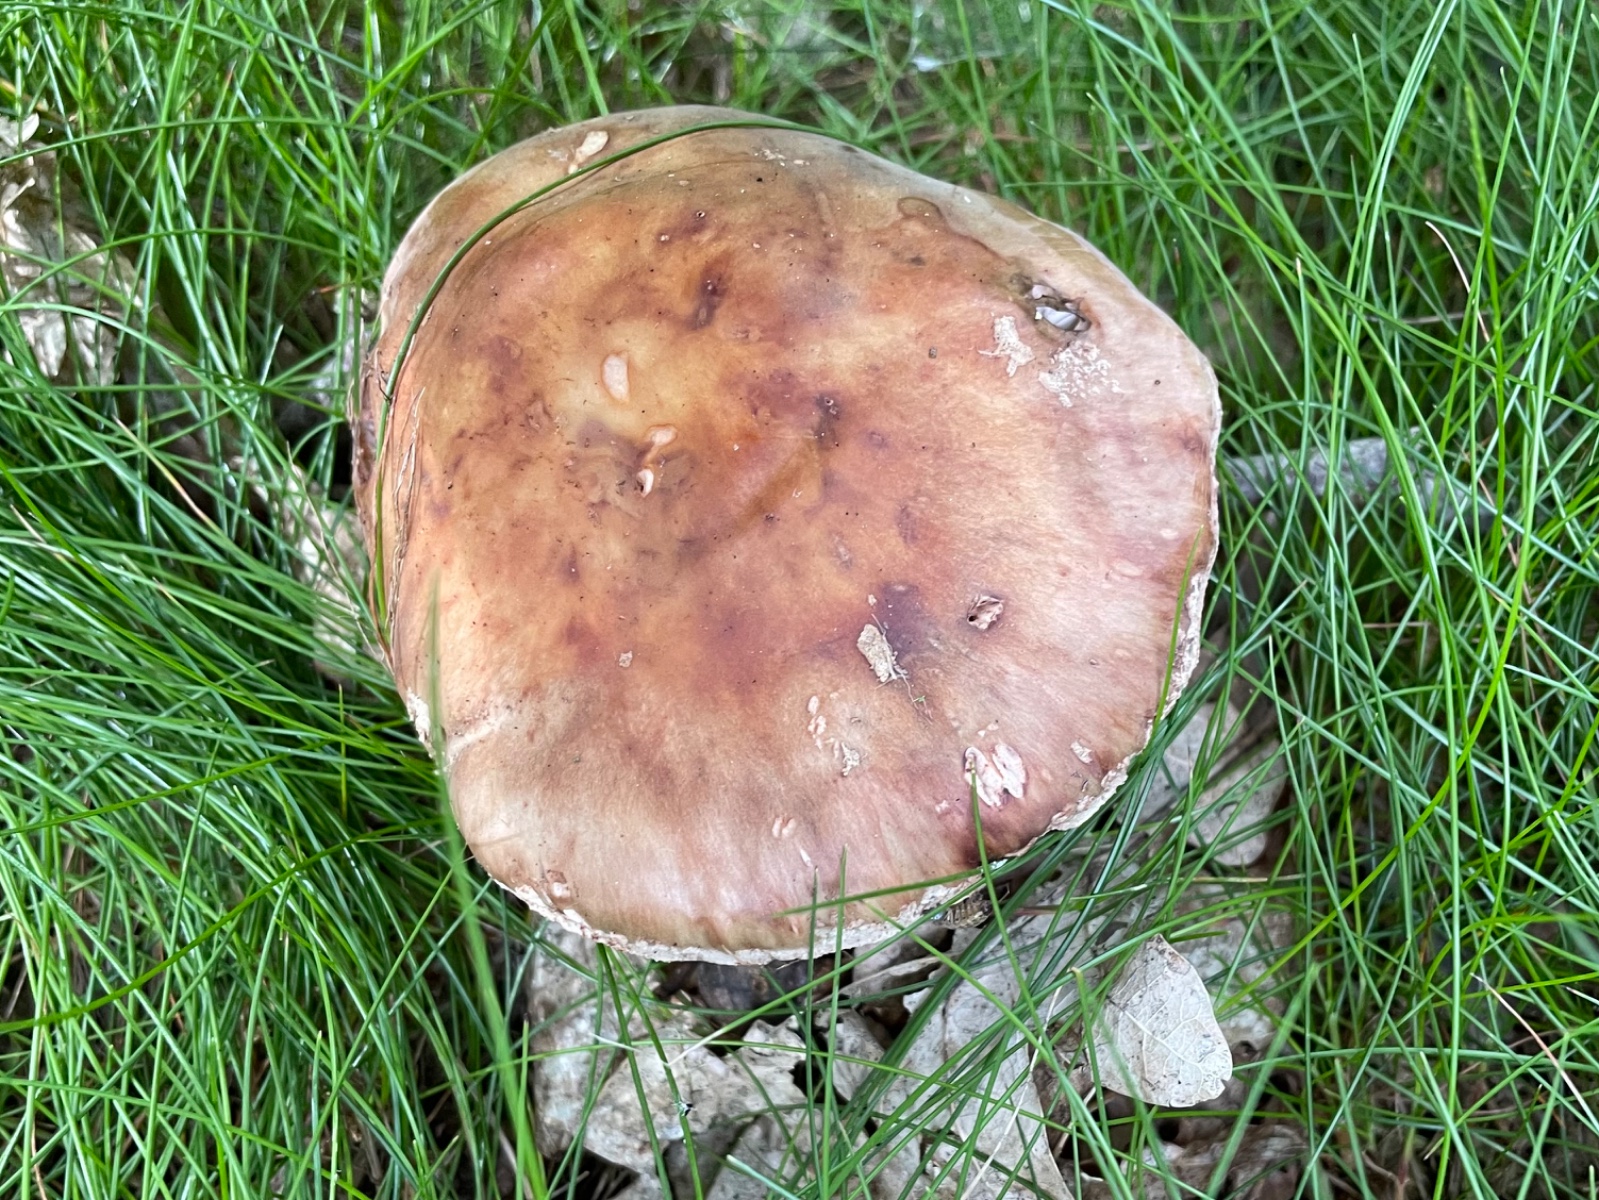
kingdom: Fungi
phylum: Basidiomycota
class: Agaricomycetes
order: Agaricales
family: Amanitaceae
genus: Amanita
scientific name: Amanita rubescens
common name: rødmende fluesvamp
